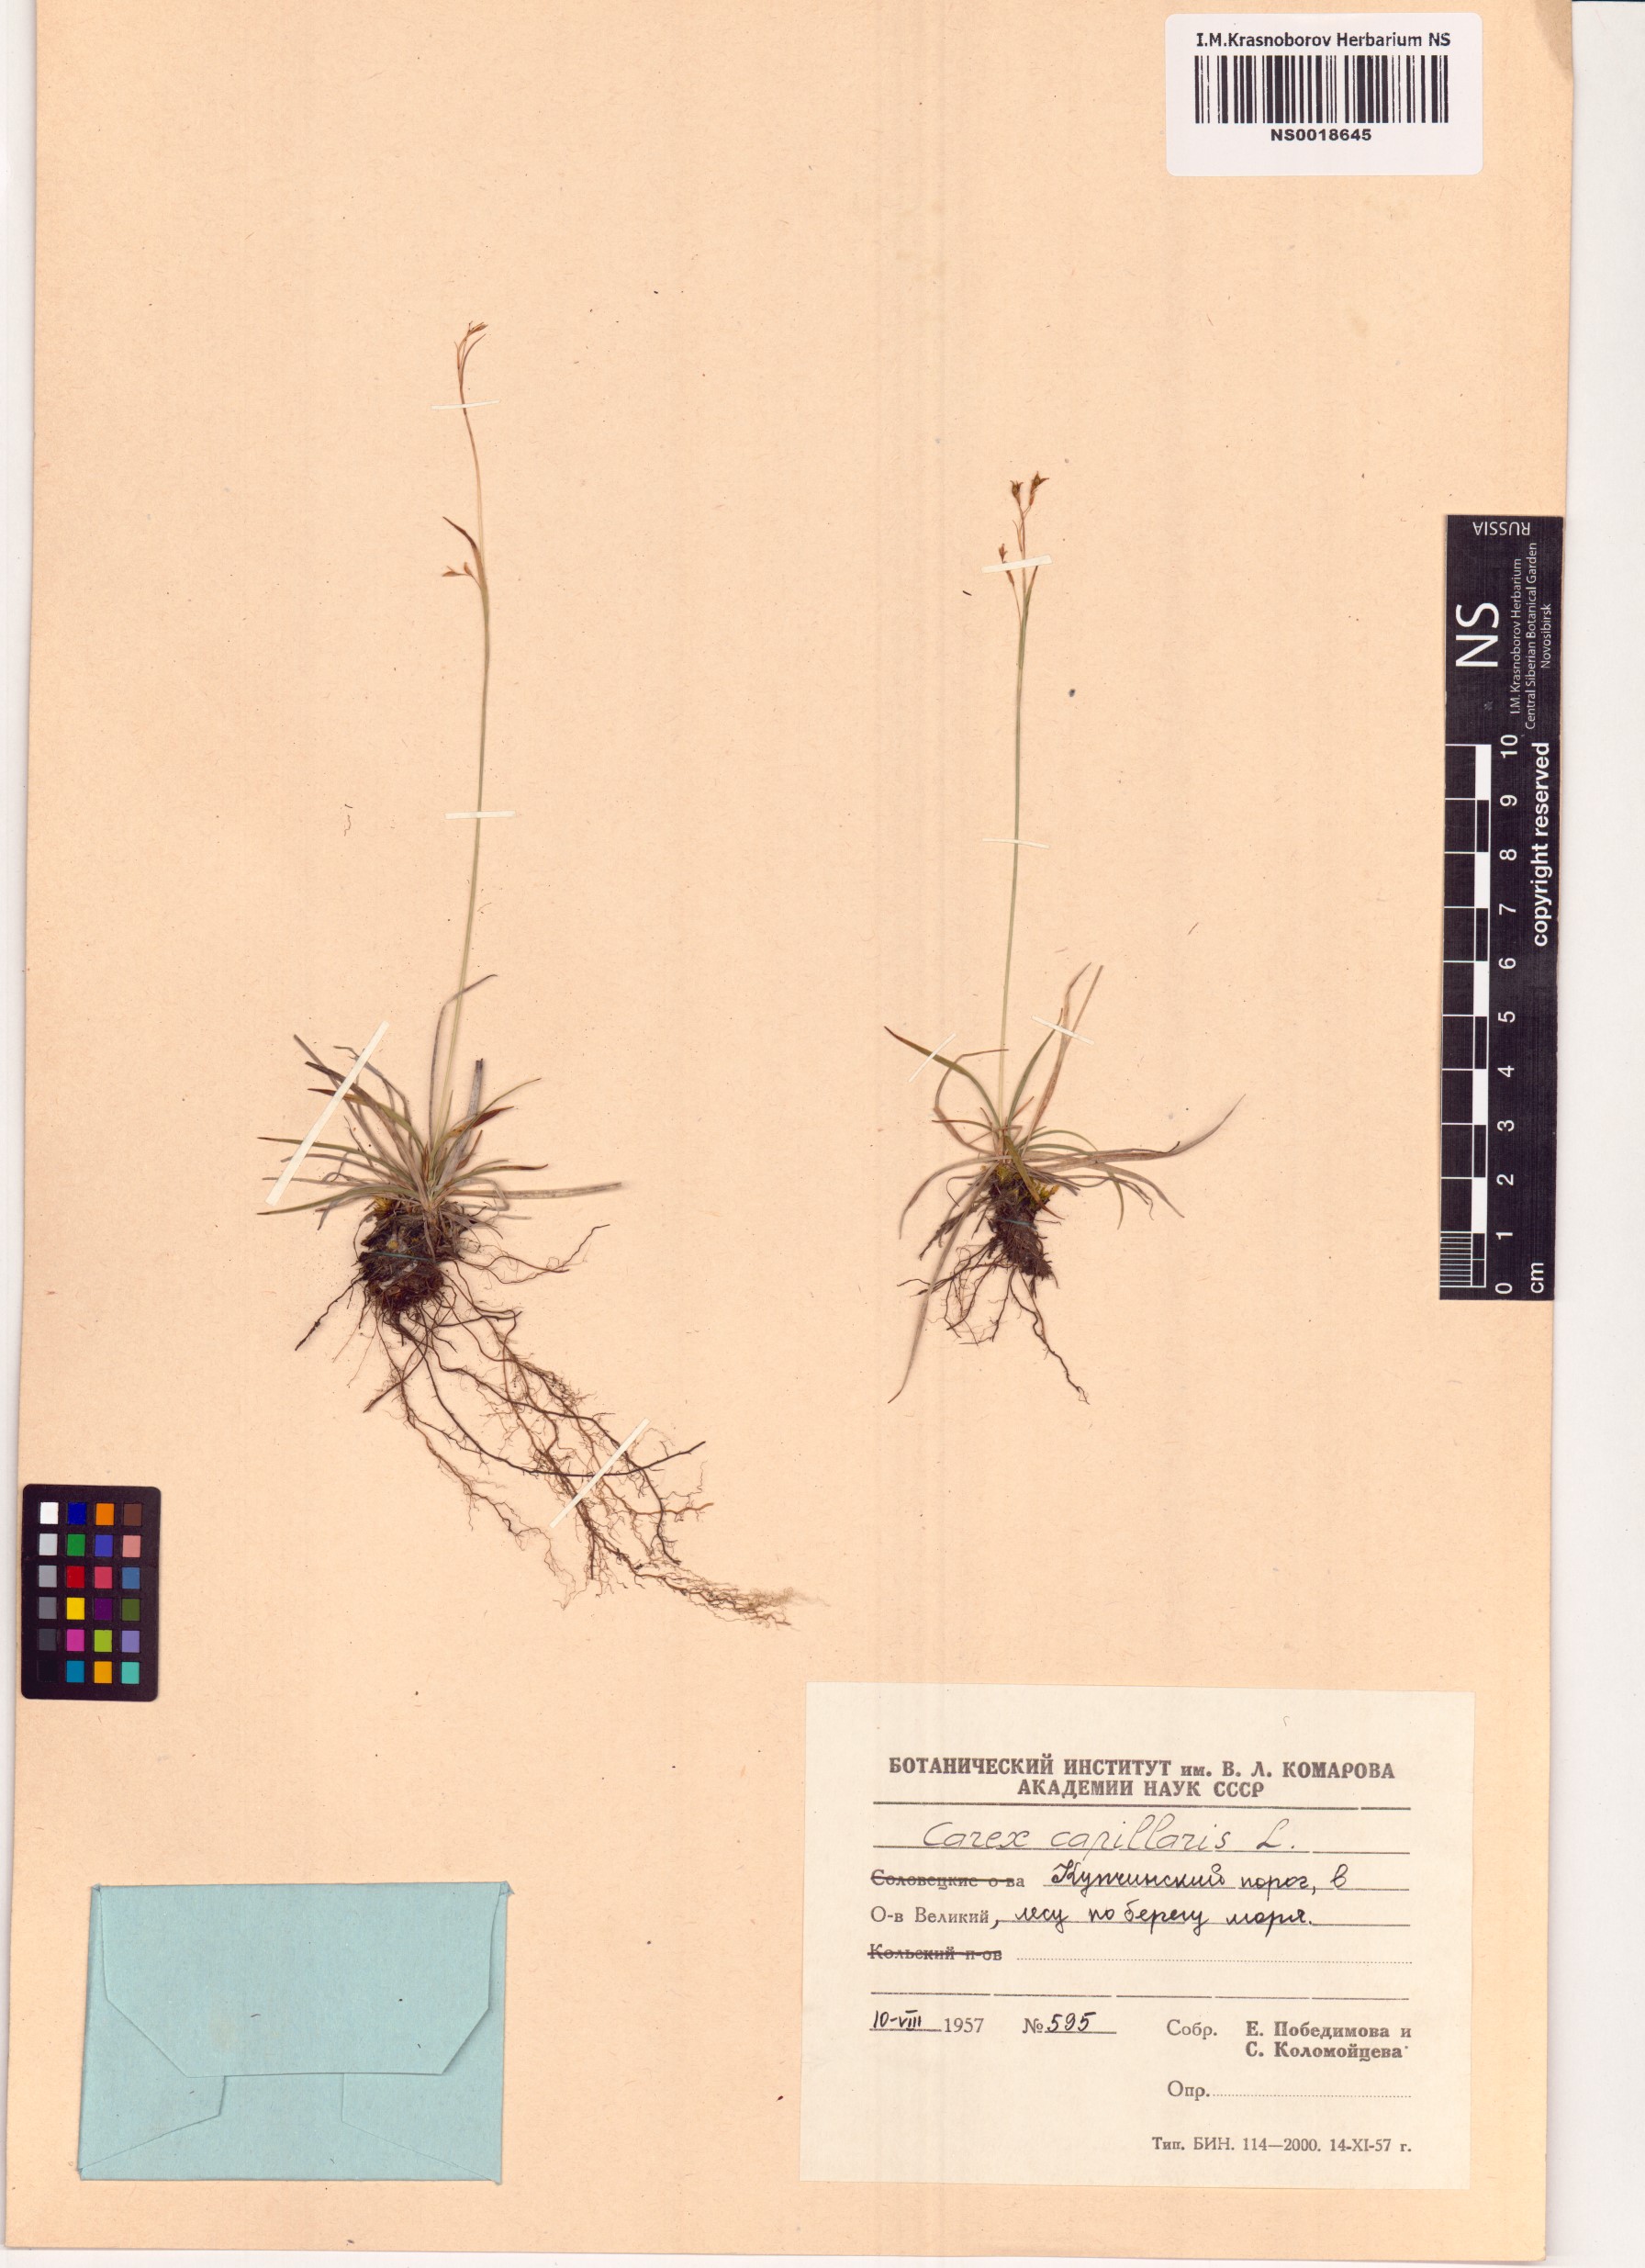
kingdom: Plantae
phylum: Tracheophyta
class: Liliopsida
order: Poales
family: Cyperaceae
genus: Carex
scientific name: Carex capillaris
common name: Hair sedge
